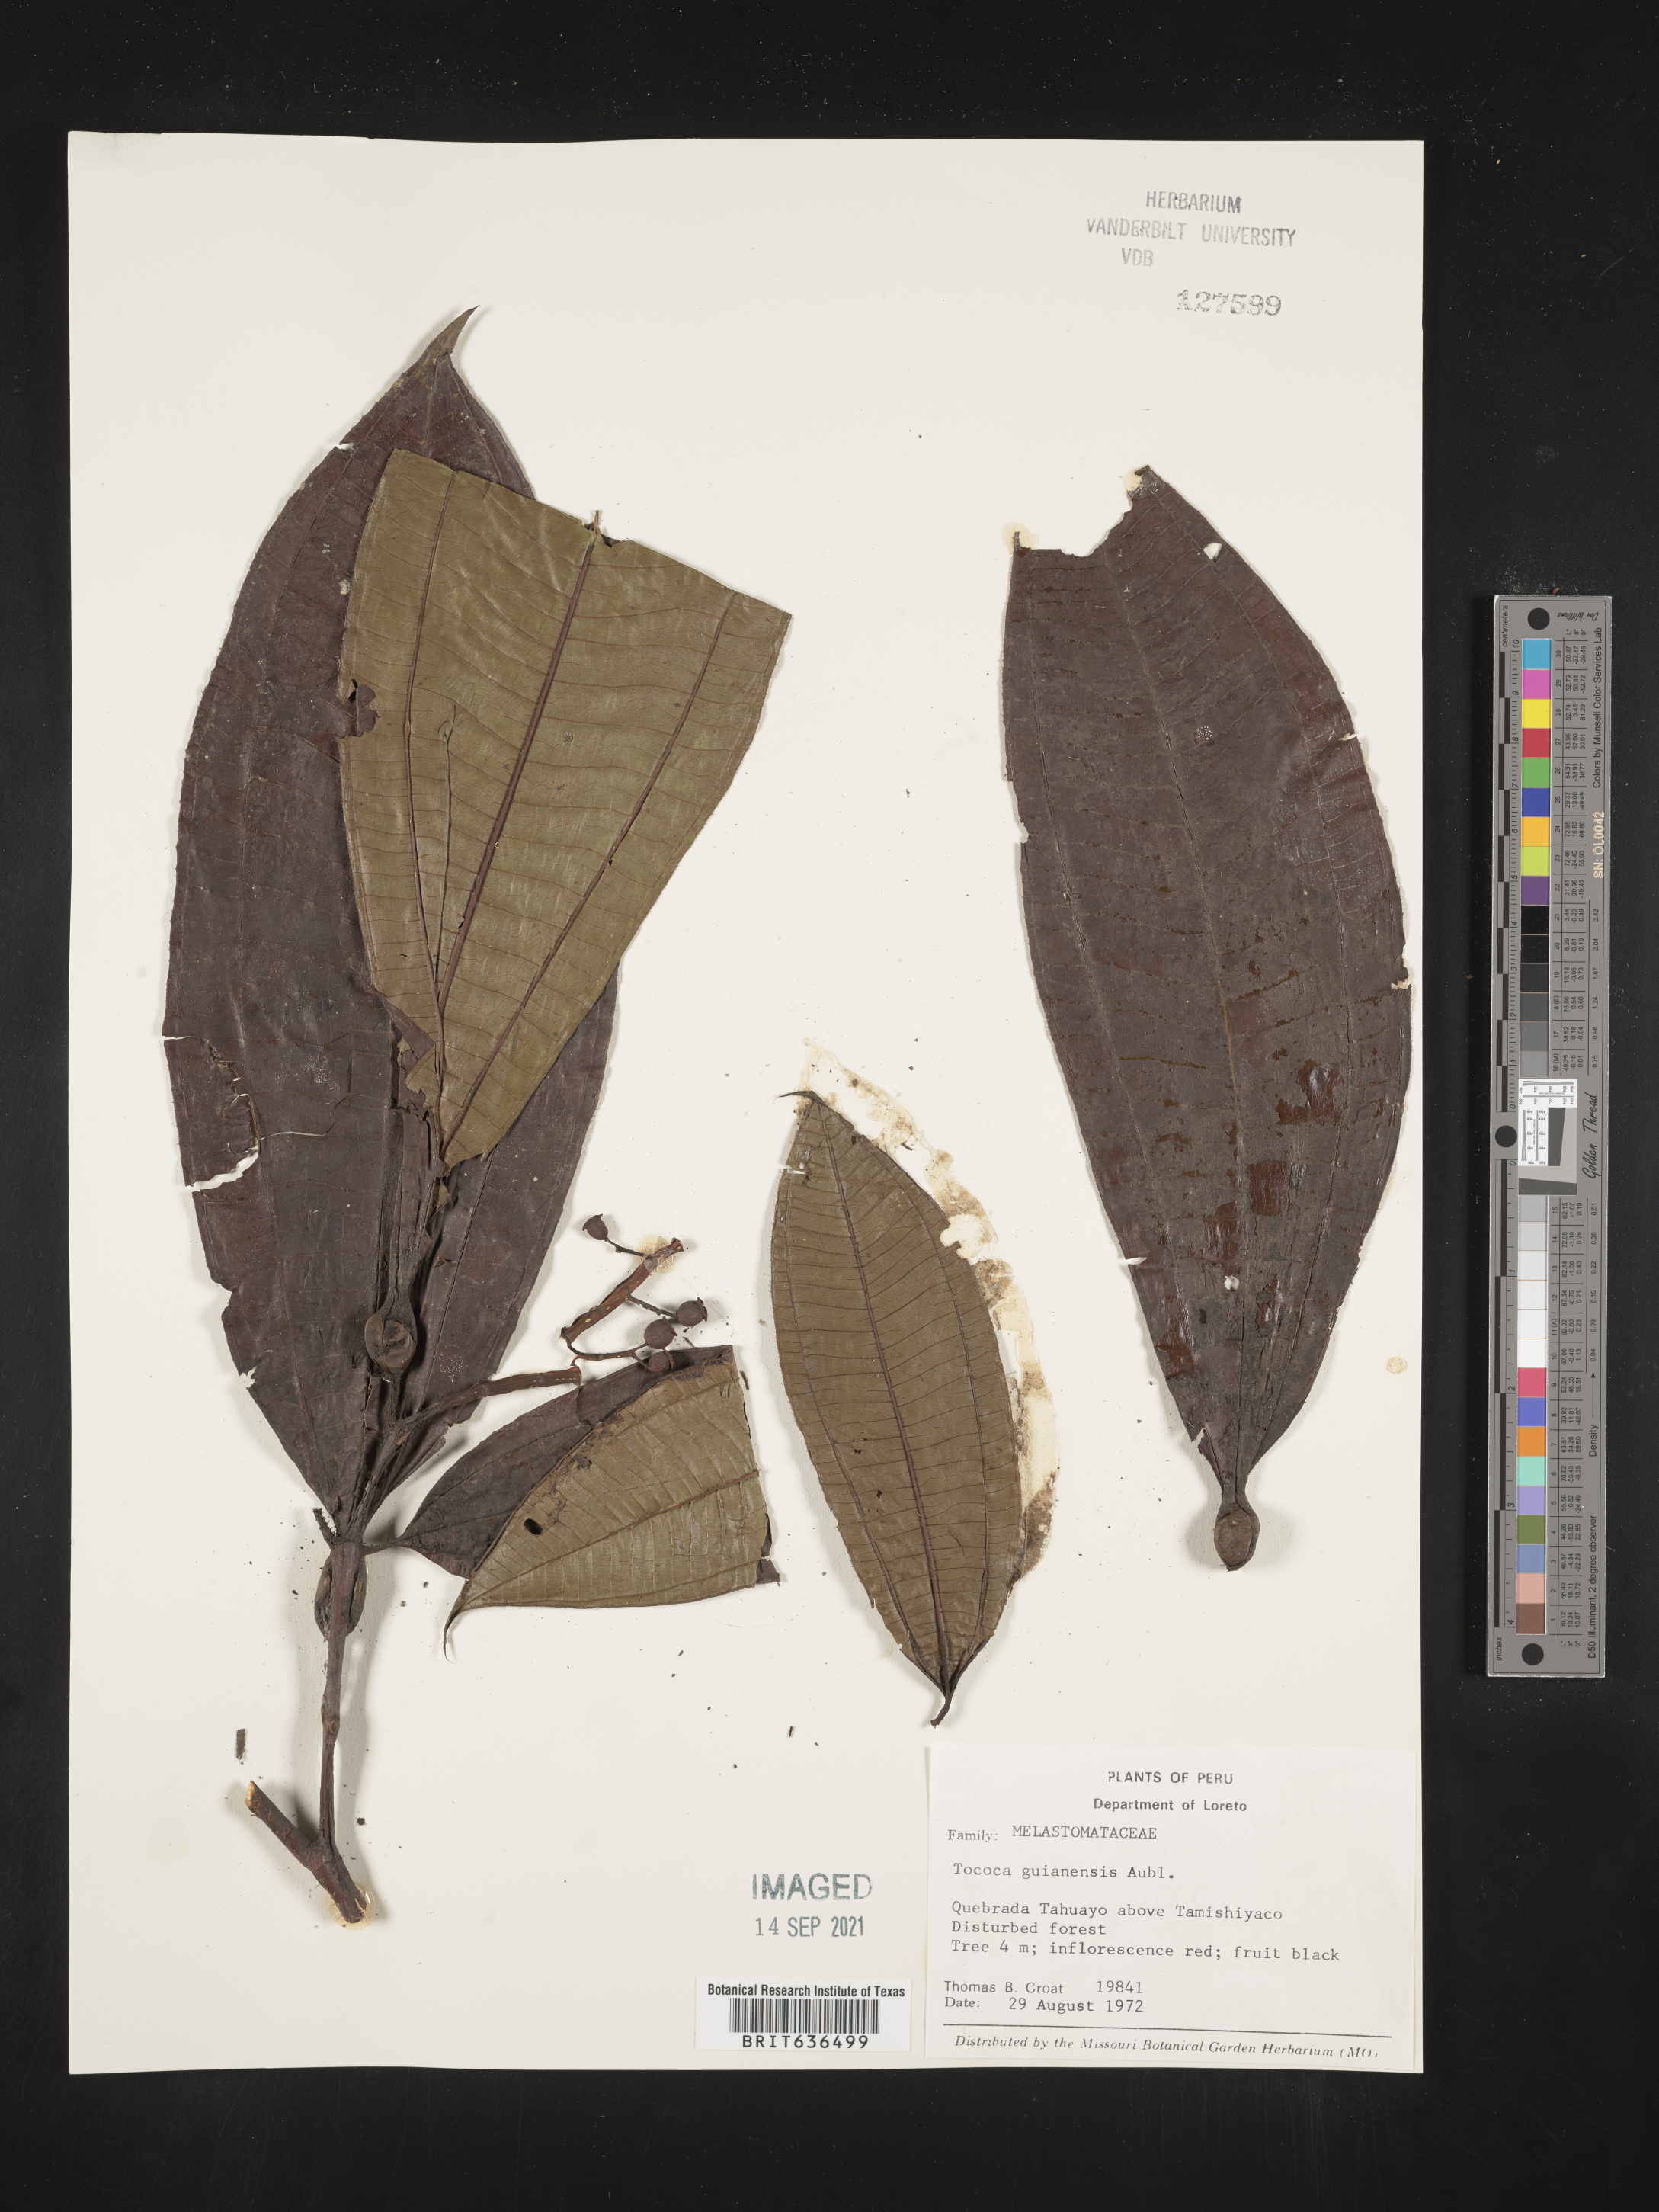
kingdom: Plantae
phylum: Tracheophyta
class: Magnoliopsida
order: Myrtales
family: Melastomataceae
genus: Tibouchina
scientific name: Tibouchina
